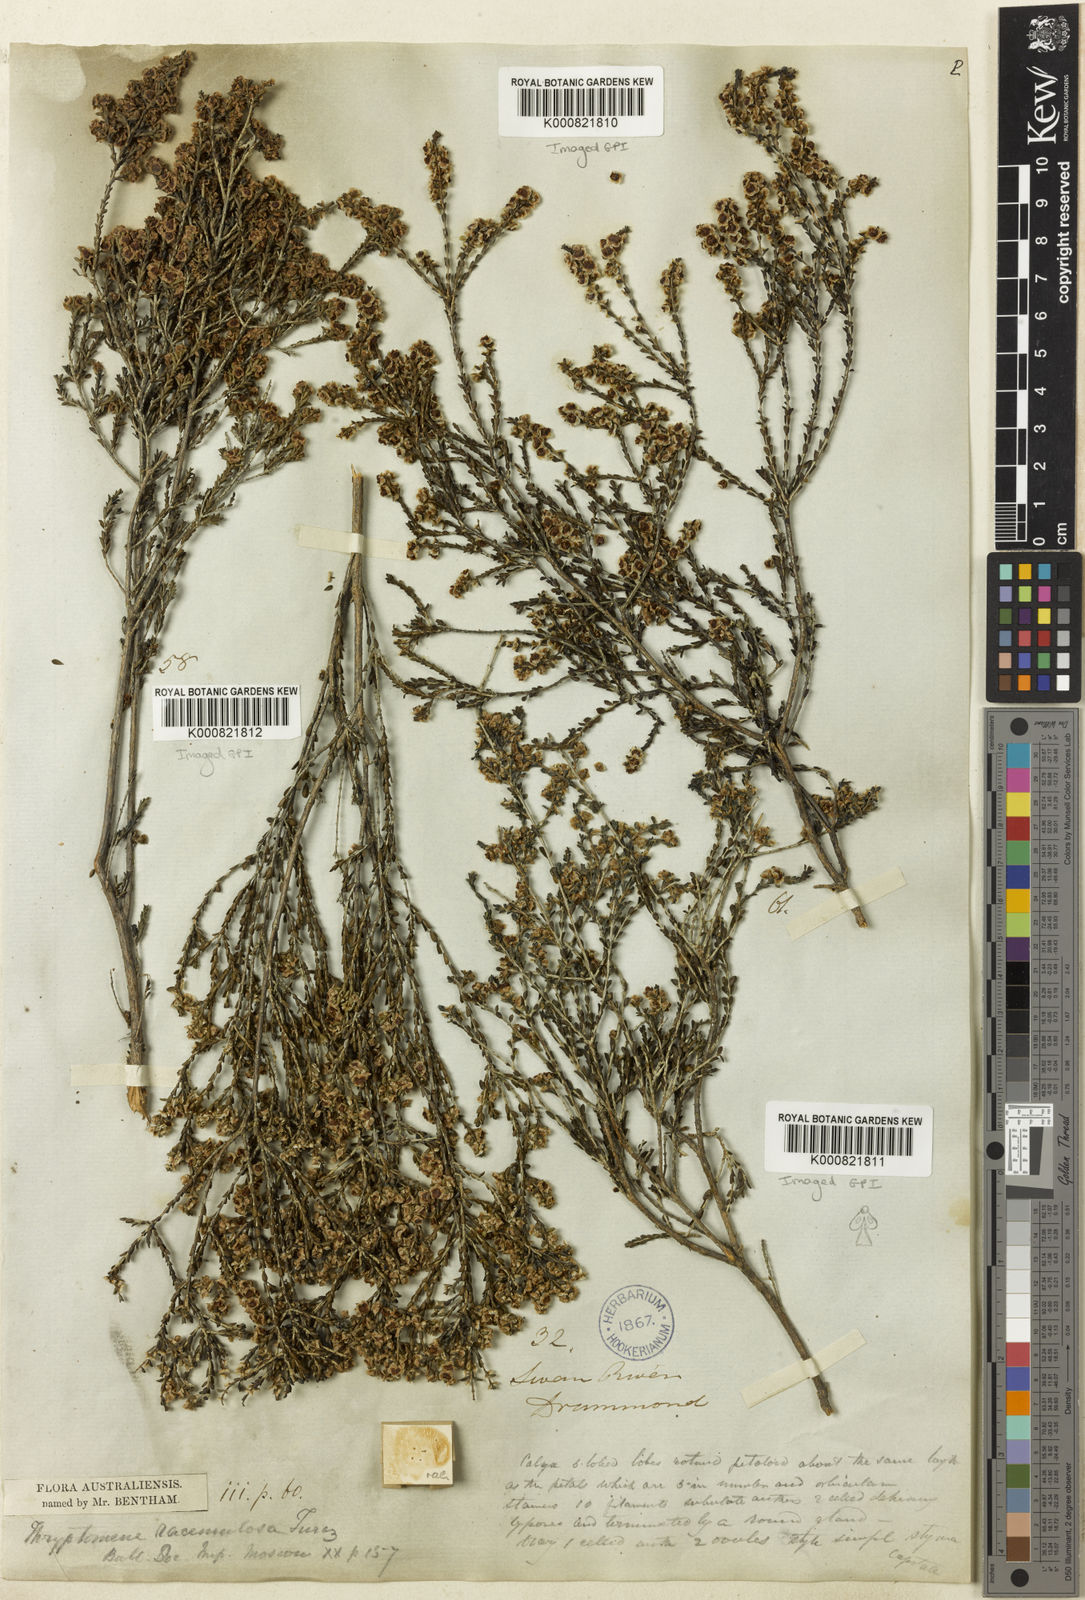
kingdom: Plantae
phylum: Tracheophyta
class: Magnoliopsida
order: Myrtales
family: Myrtaceae
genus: Thryptomene
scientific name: Thryptomene racemulosa
